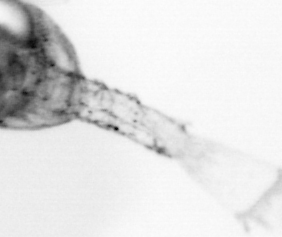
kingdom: Animalia
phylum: Arthropoda
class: Copepoda
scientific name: Copepoda
